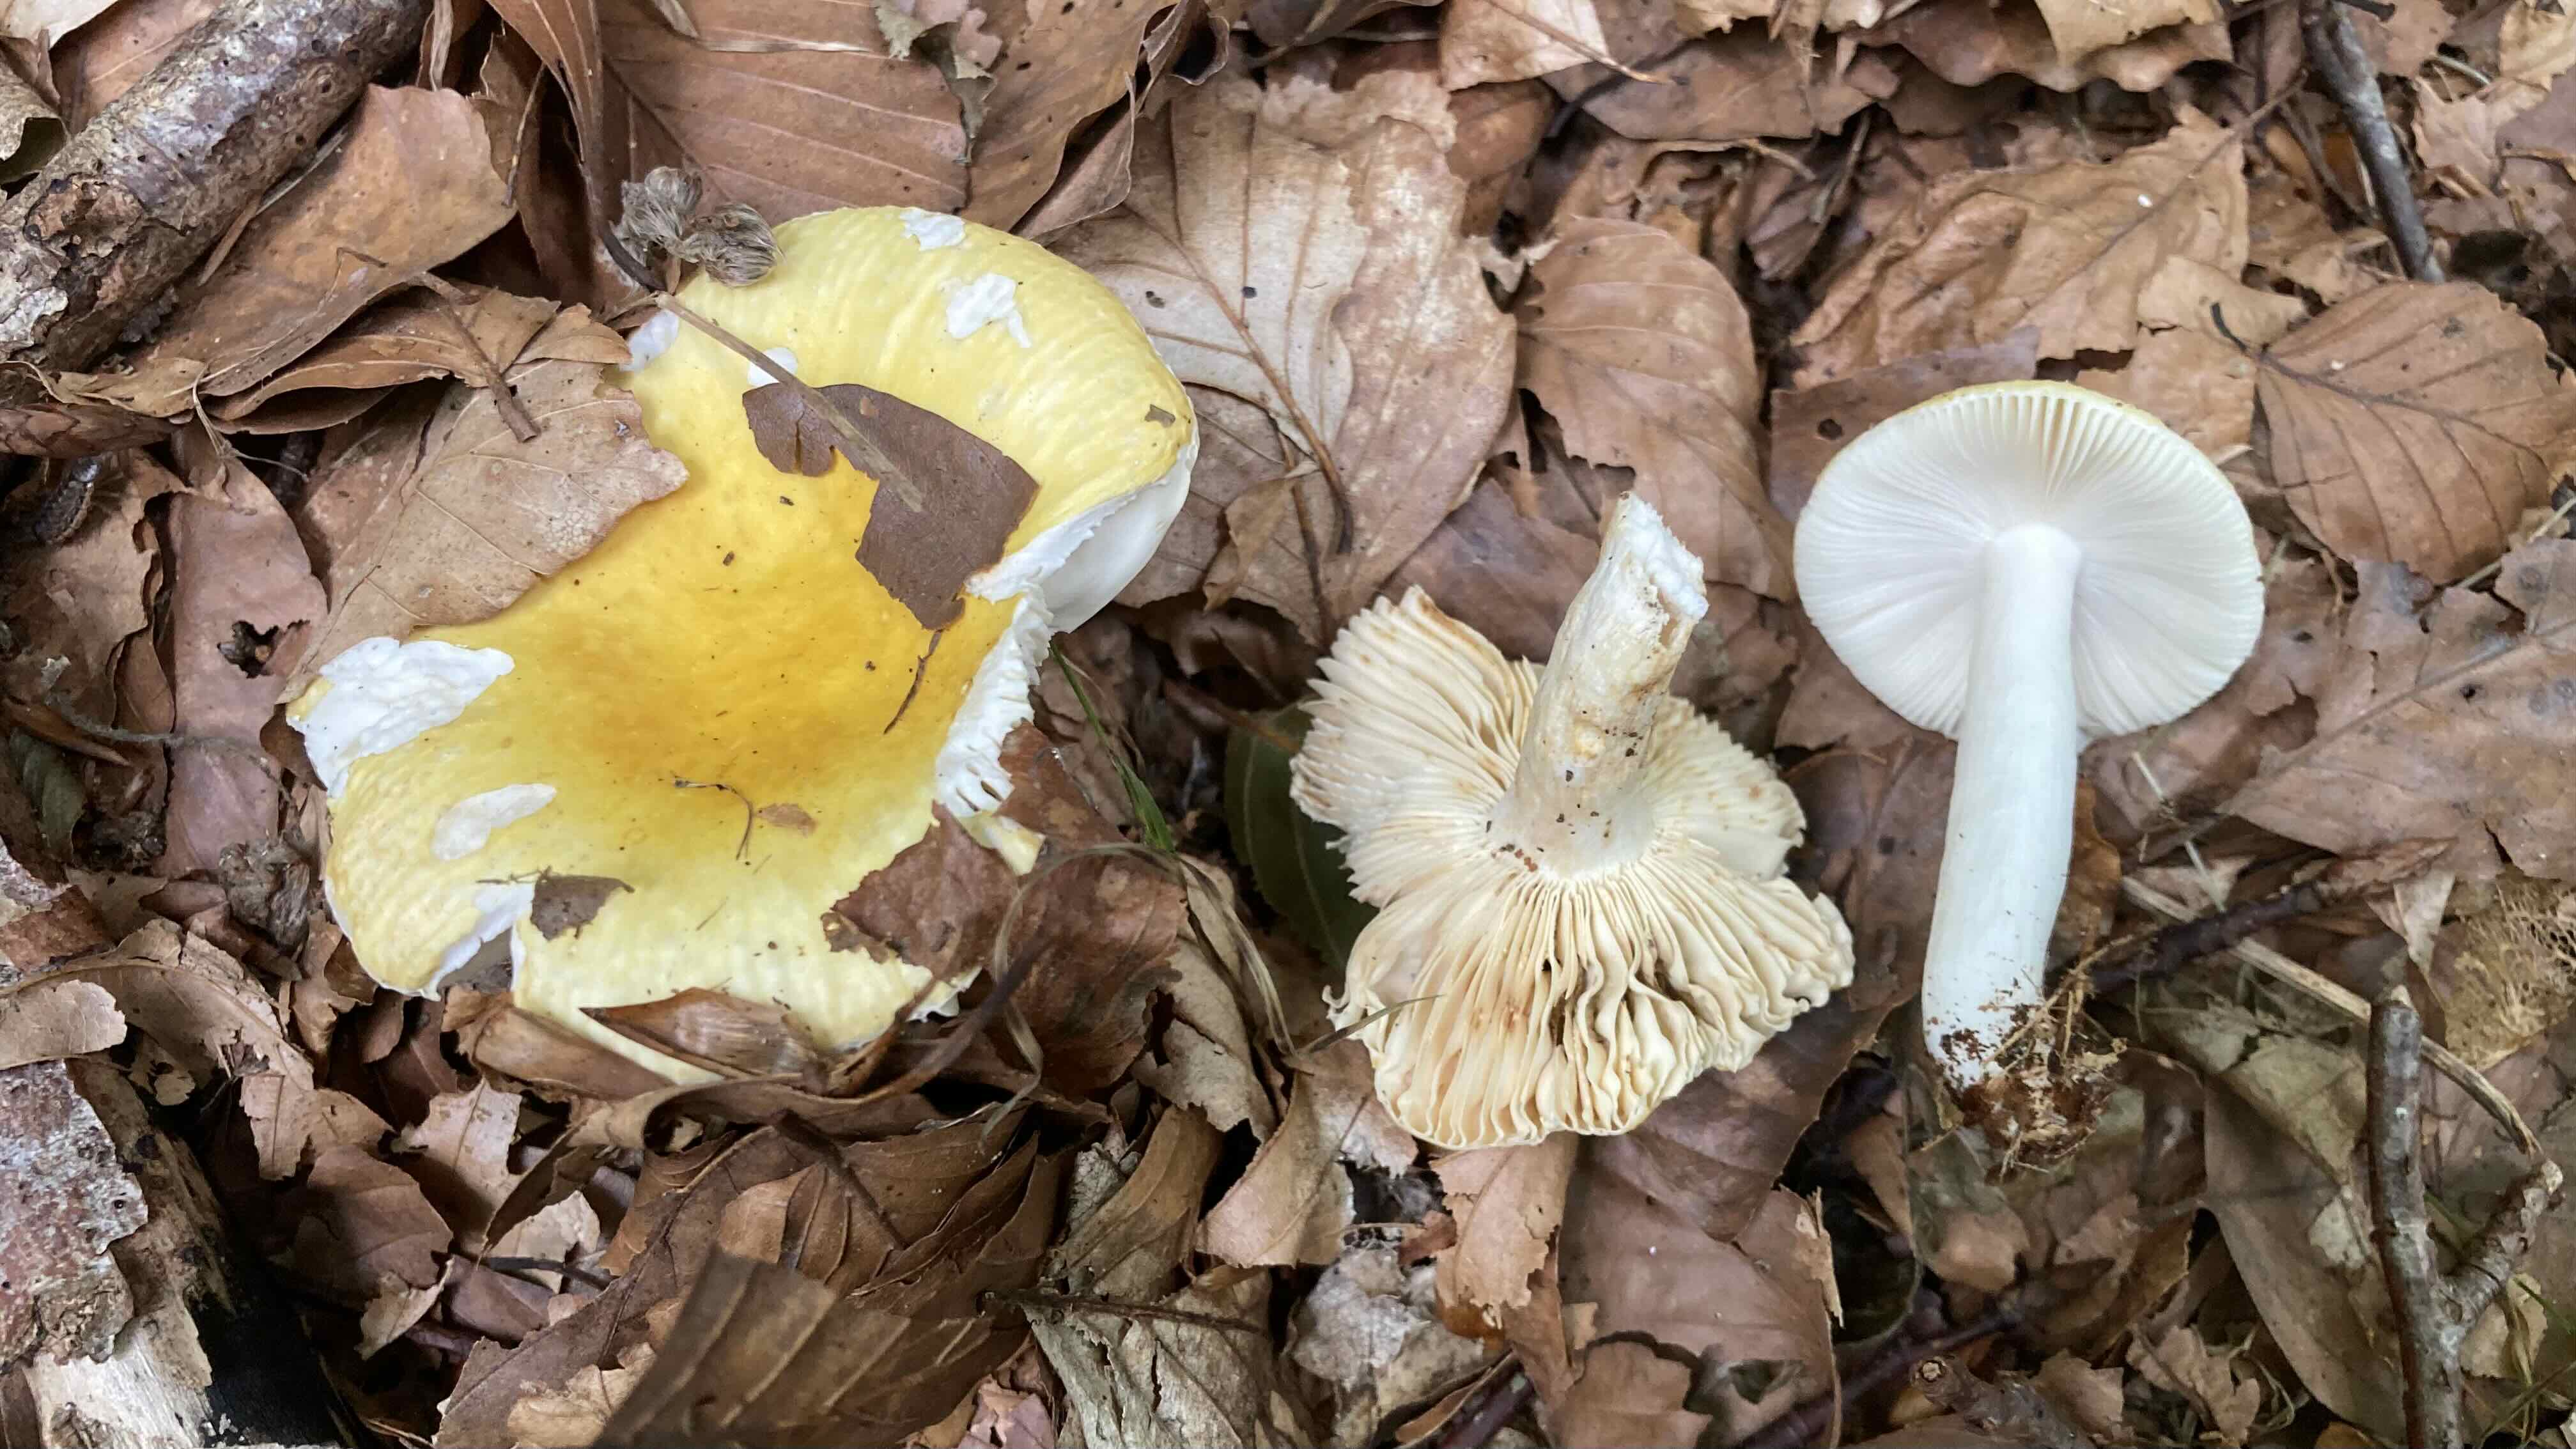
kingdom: Fungi
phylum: Basidiomycota
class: Agaricomycetes
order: Russulales
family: Russulaceae
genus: Russula
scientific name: Russula solaris
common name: sol-skørhat
